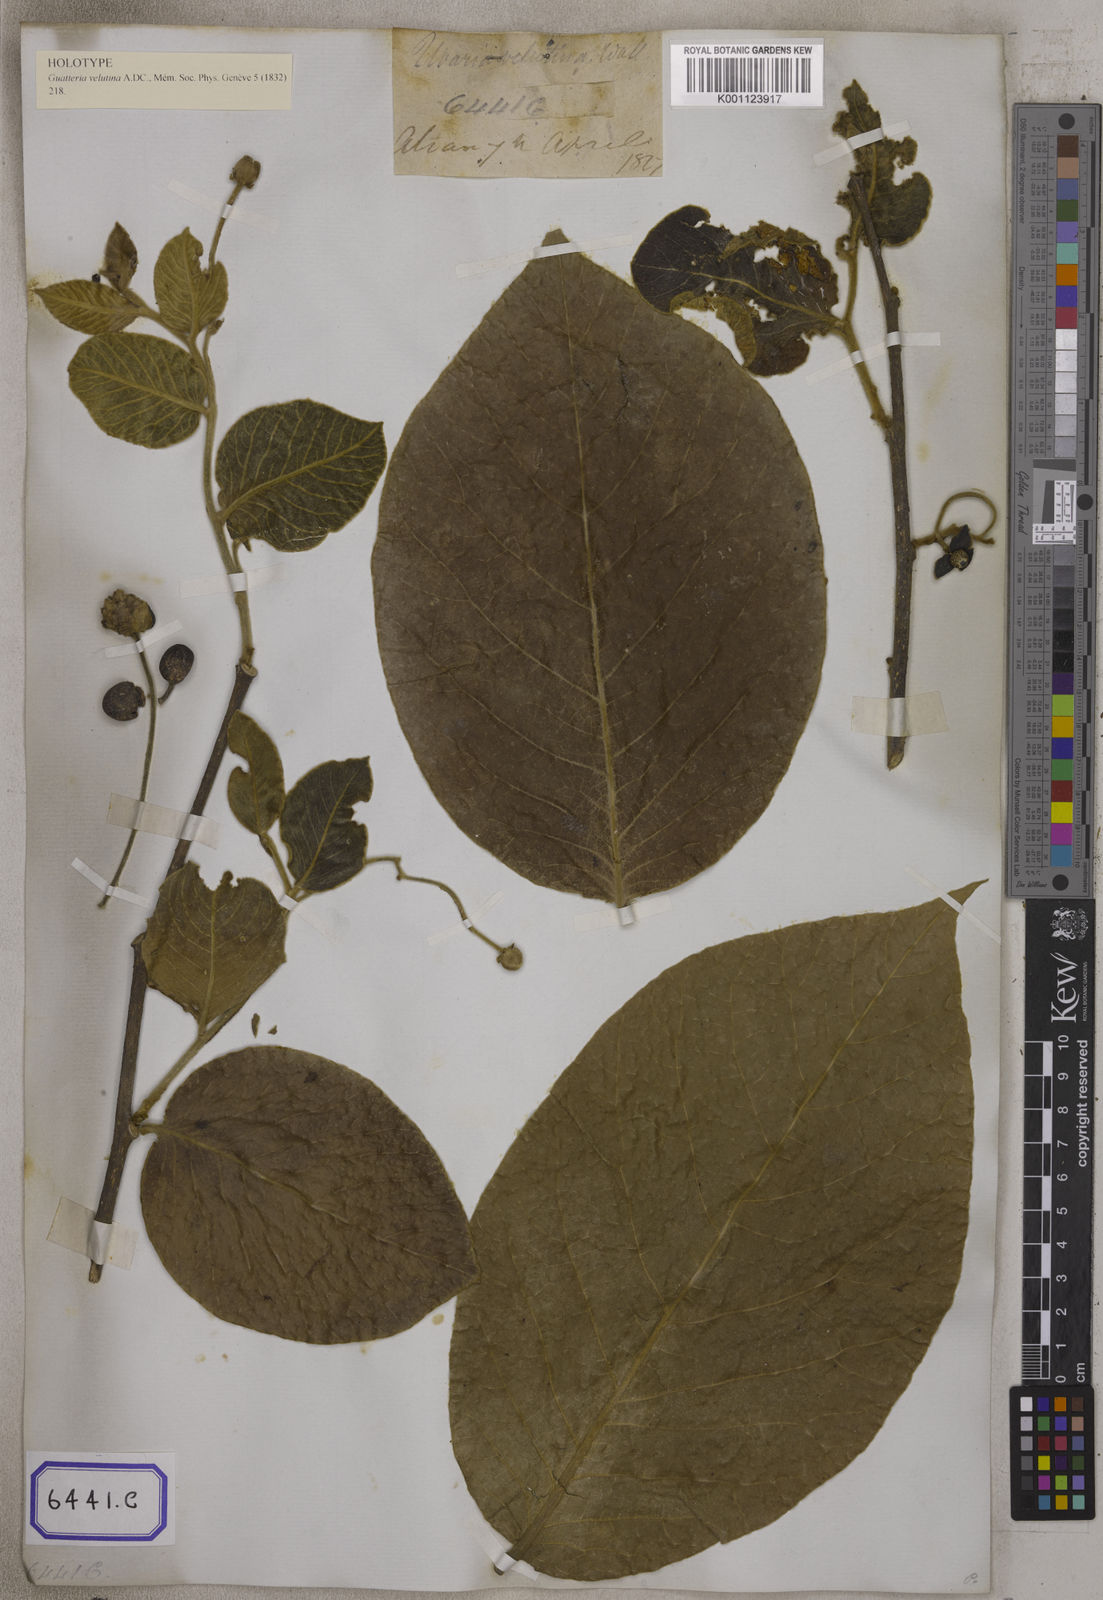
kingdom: Plantae
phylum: Tracheophyta
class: Magnoliopsida
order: Magnoliales
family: Annonaceae
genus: Miliusa
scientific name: Miliusa velutina
